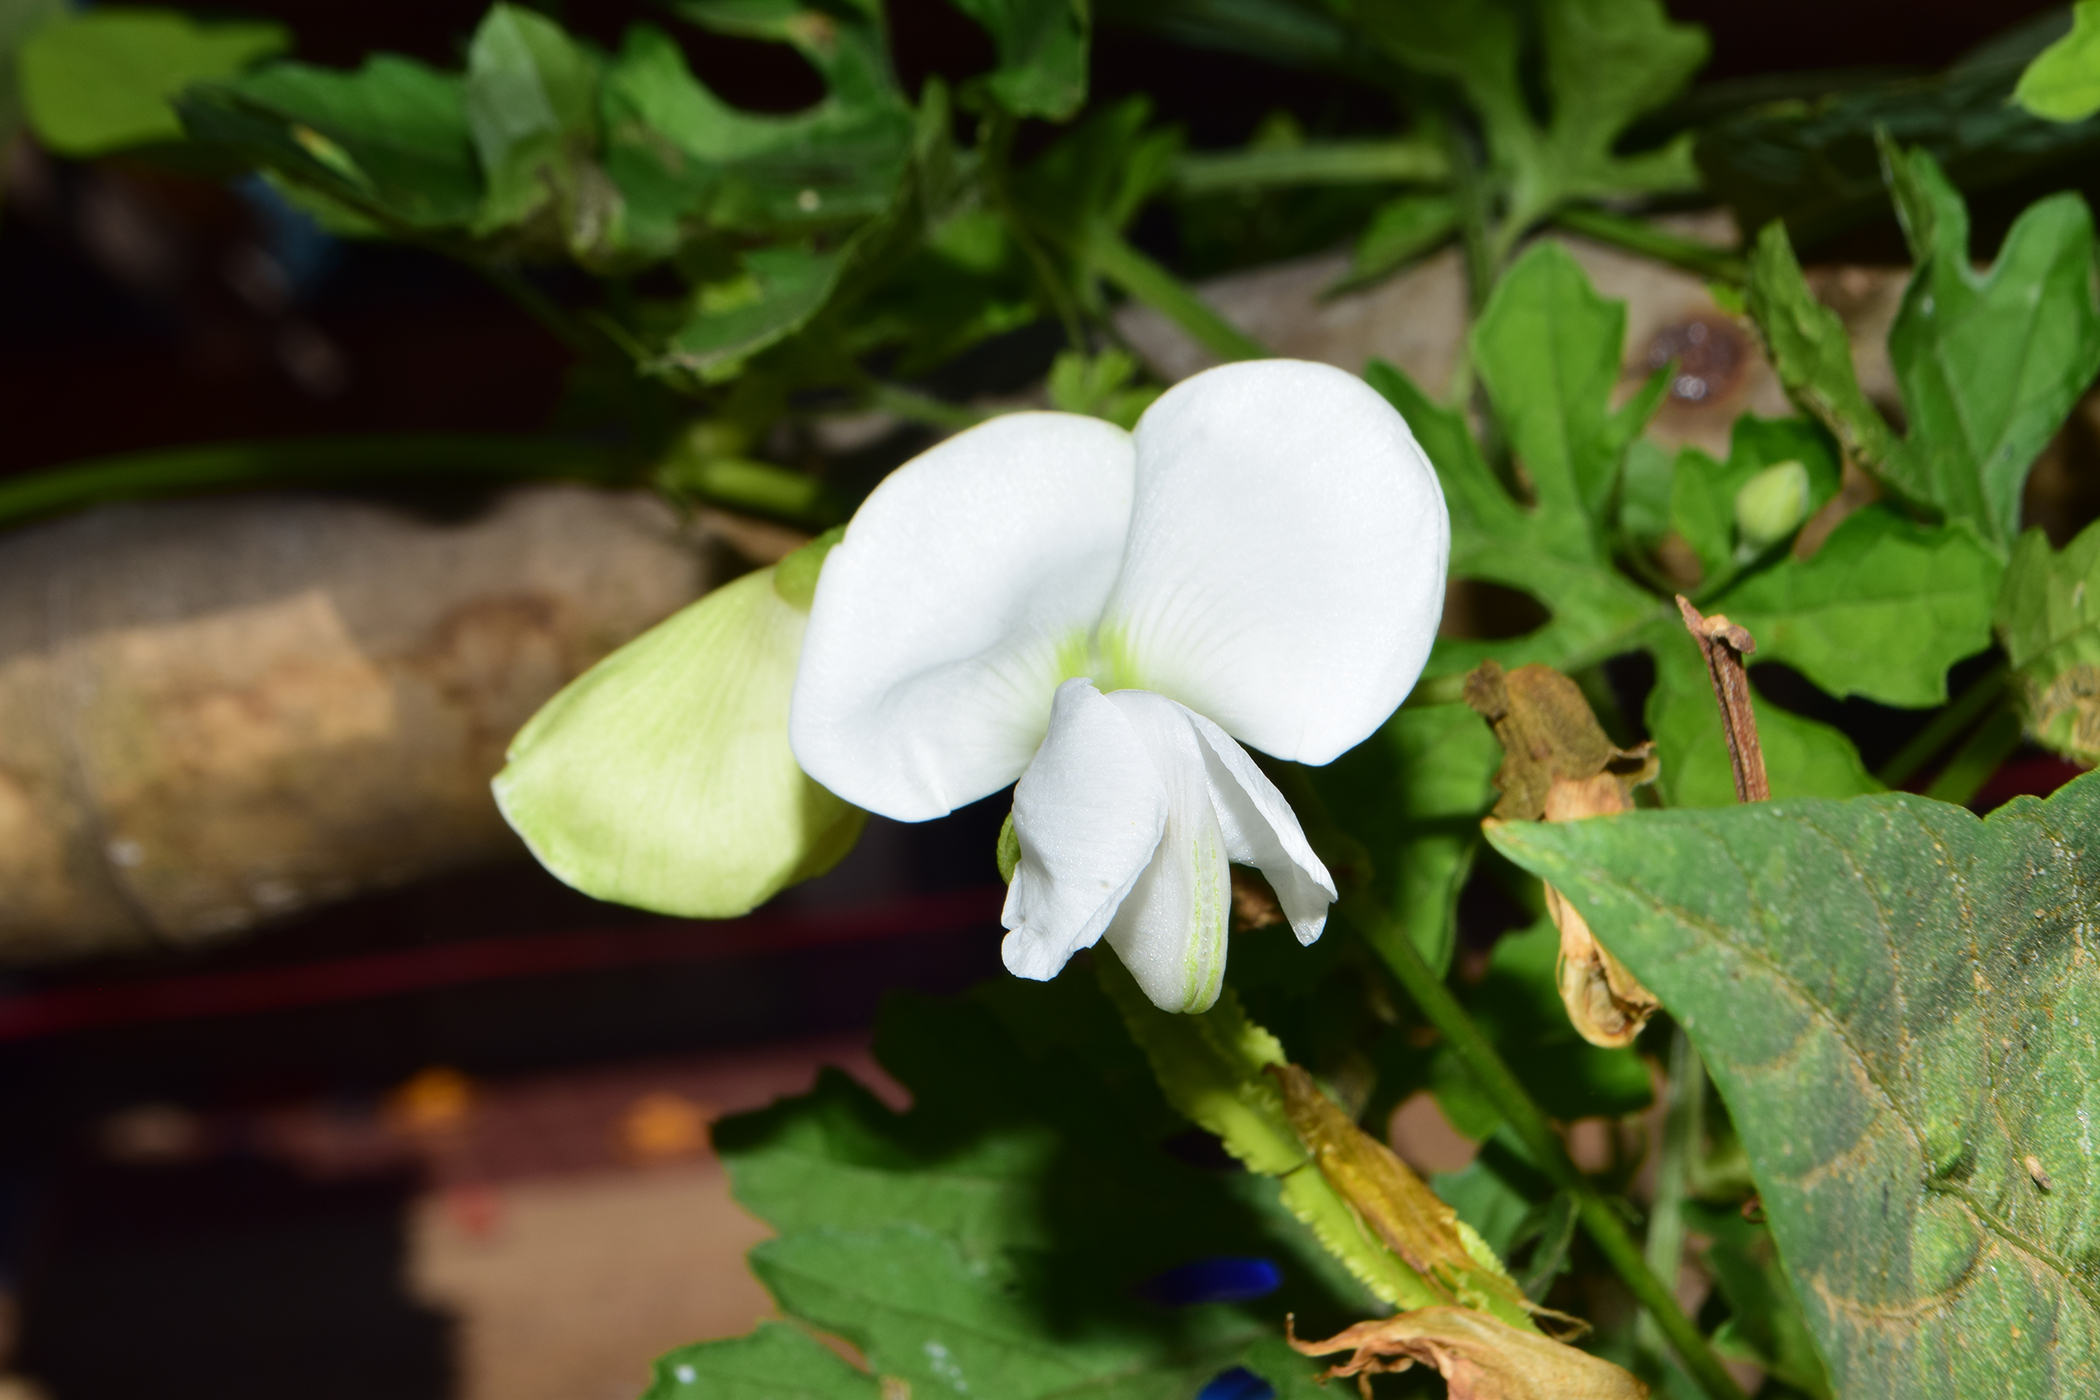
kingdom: Plantae
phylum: Tracheophyta
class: Magnoliopsida
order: Fabales
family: Fabaceae
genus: Psophocarpus
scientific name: Psophocarpus tetragonolobus
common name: Goa-bean
